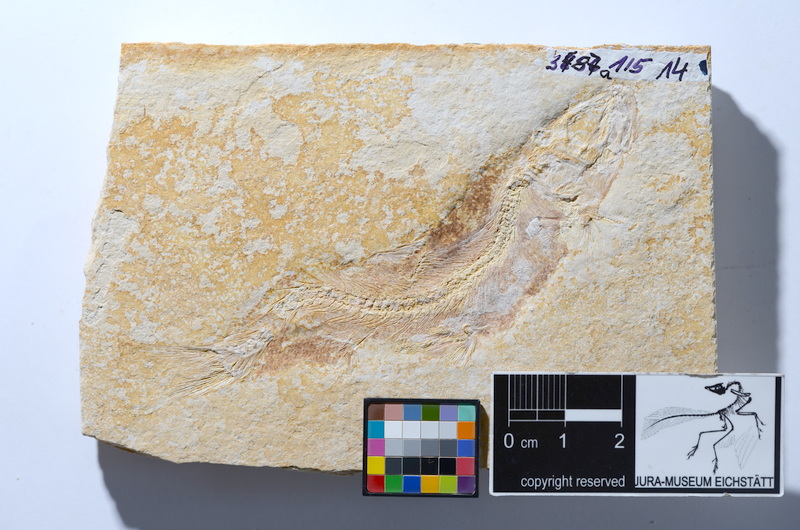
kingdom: Animalia
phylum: Chordata
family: Ascalaboidae
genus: Tharsis
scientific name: Tharsis dubius
